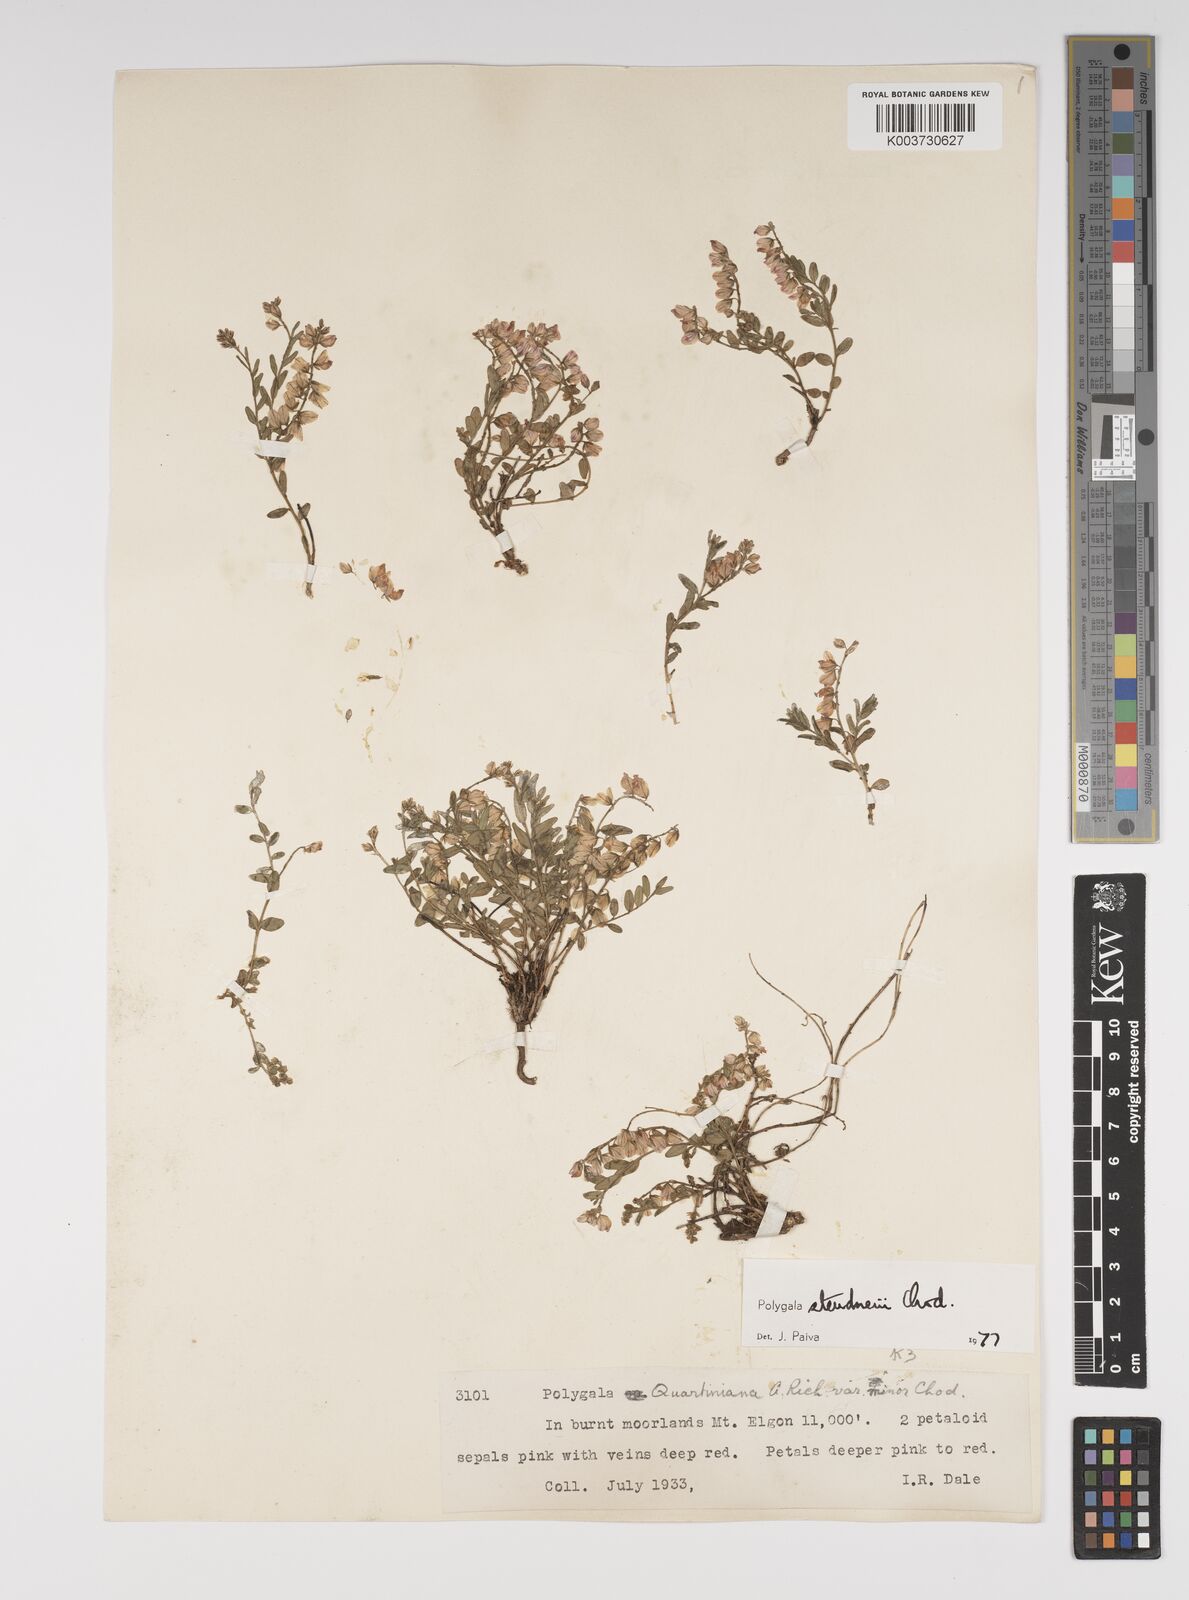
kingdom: Plantae
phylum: Tracheophyta
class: Magnoliopsida
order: Fabales
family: Polygalaceae
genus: Polygala
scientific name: Polygala steudneri
